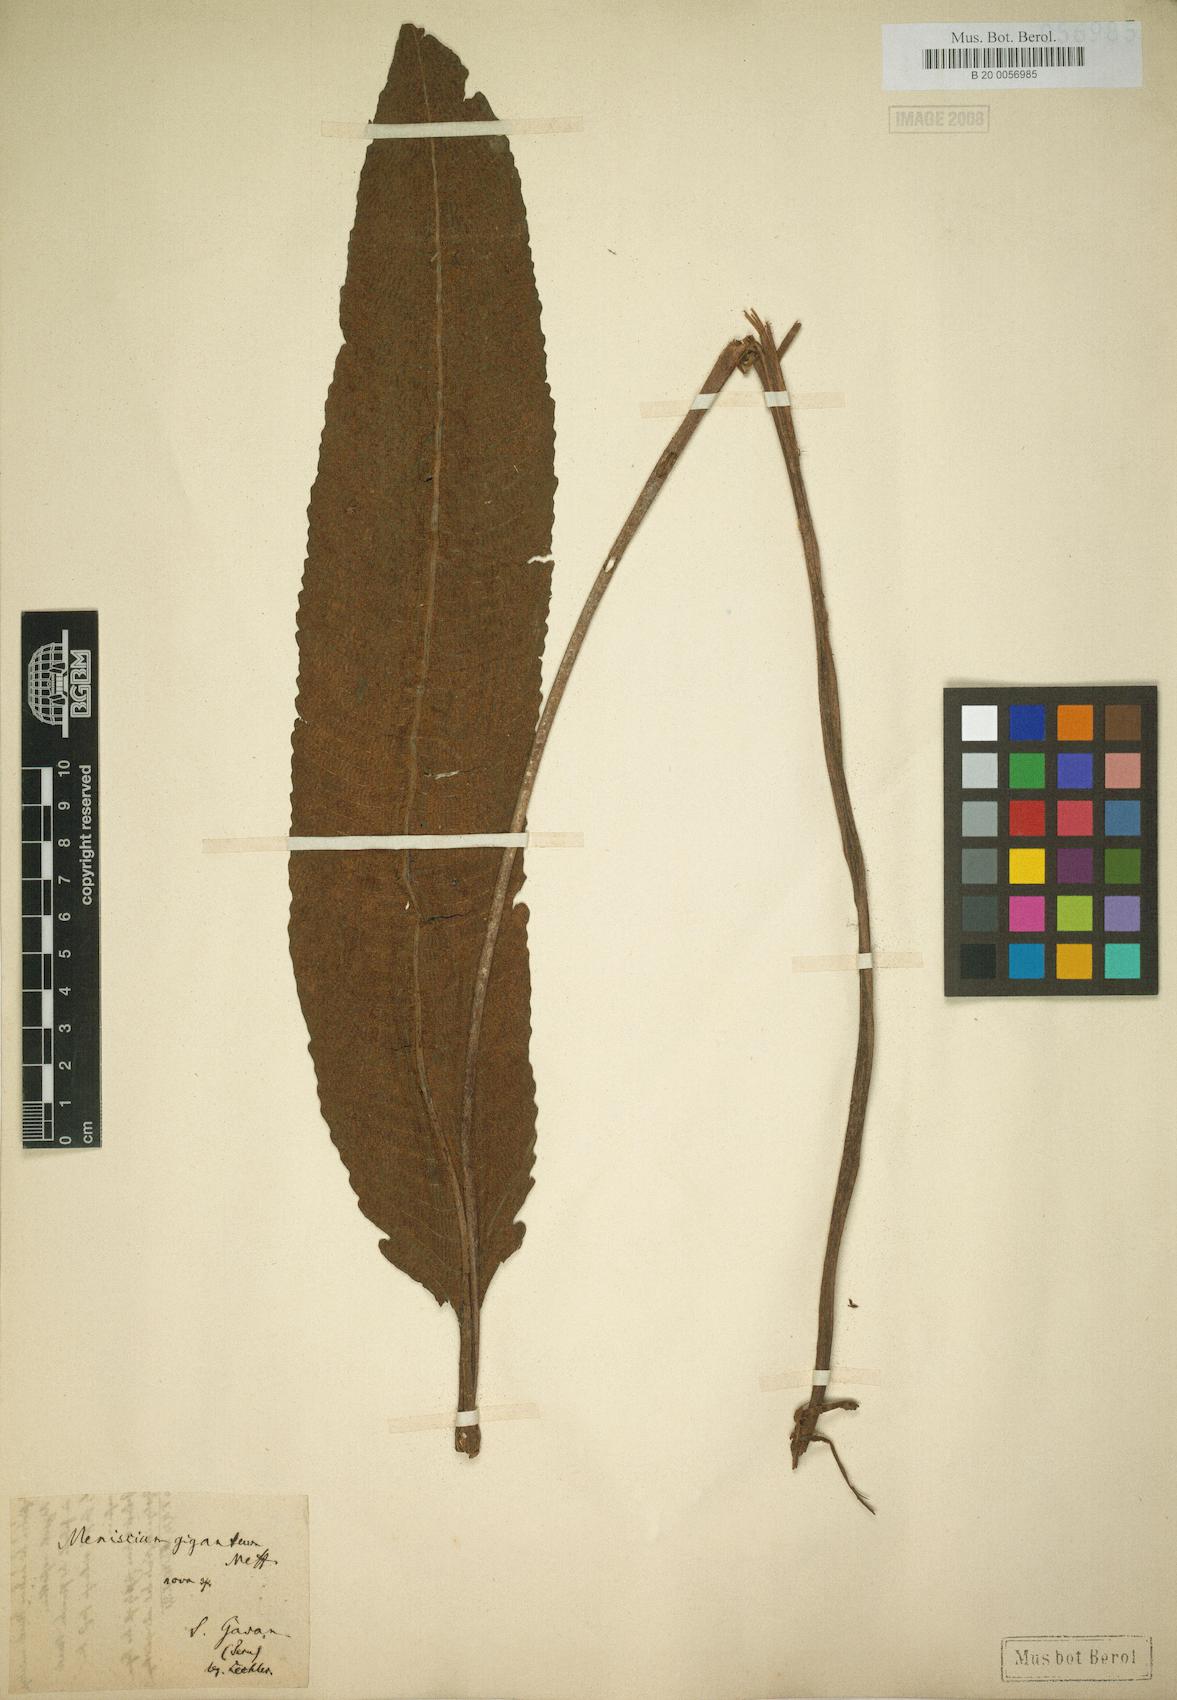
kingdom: Plantae
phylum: Tracheophyta
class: Polypodiopsida
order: Polypodiales
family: Thelypteridaceae
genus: Meniscium
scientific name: Meniscium giganteum
